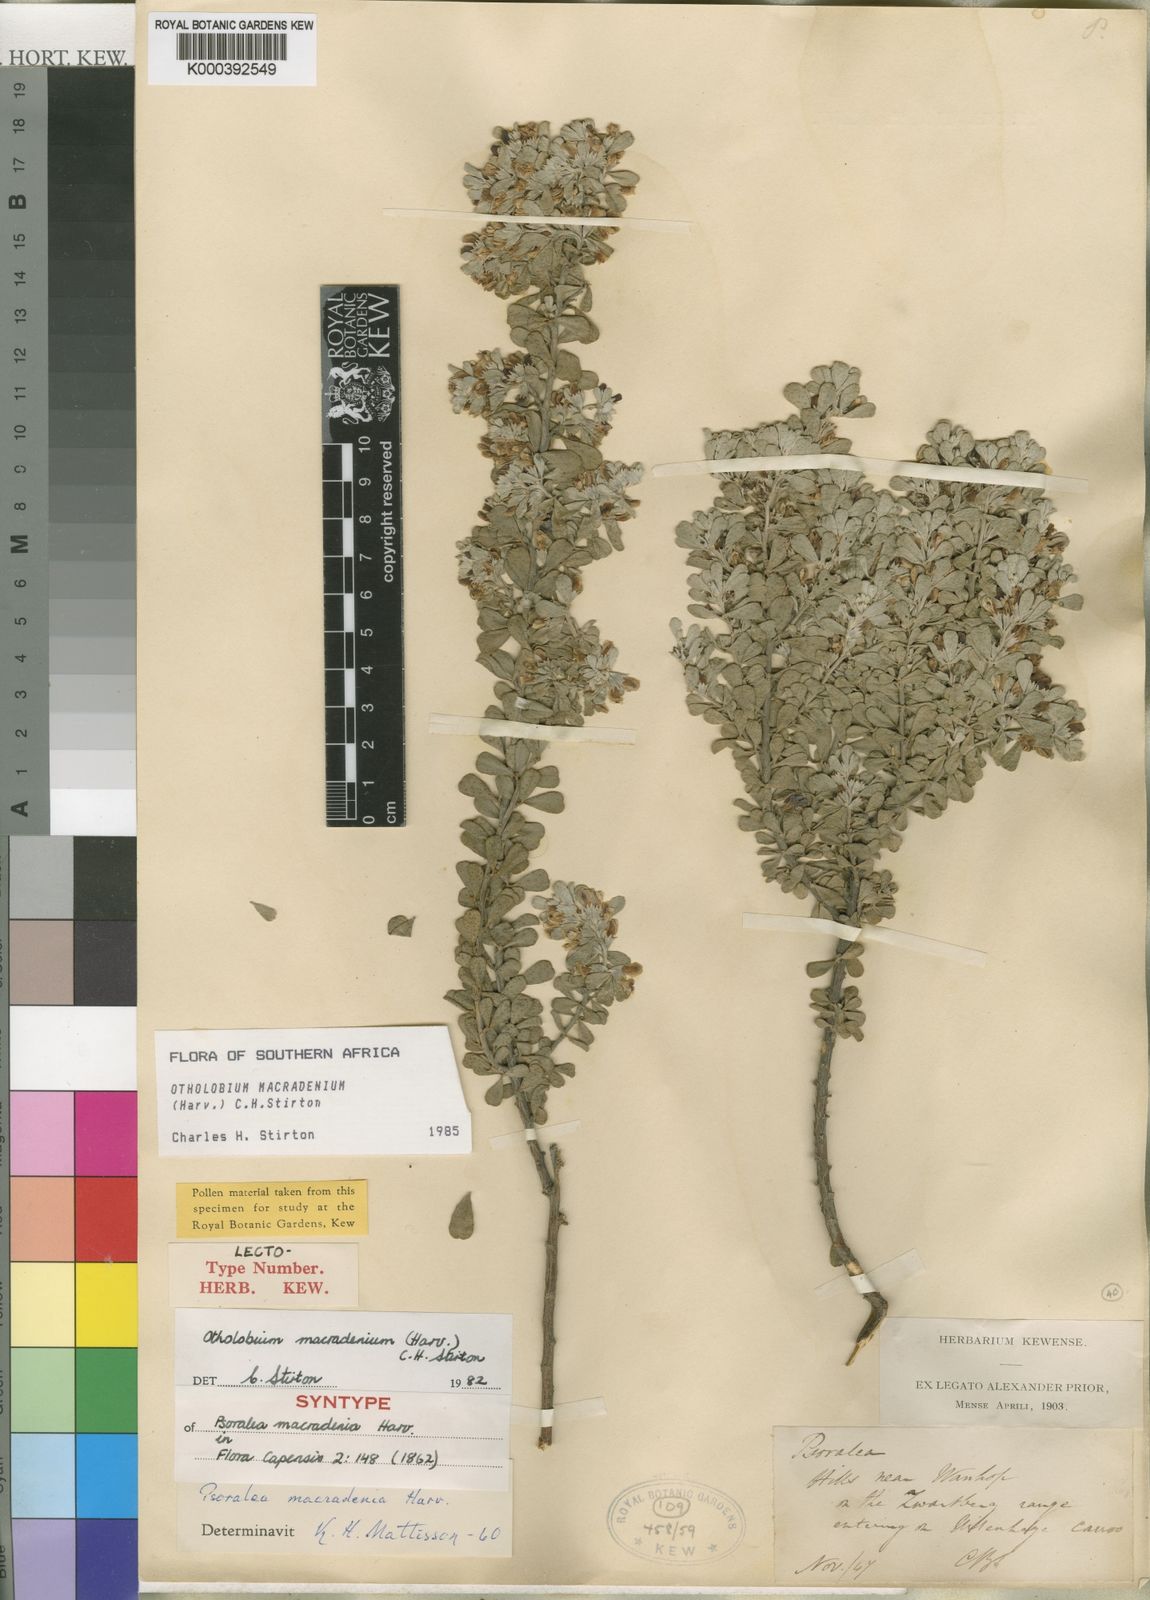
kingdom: Plantae
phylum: Tracheophyta
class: Magnoliopsida
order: Fabales
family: Fabaceae
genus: Psoralea
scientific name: Psoralea velutina
